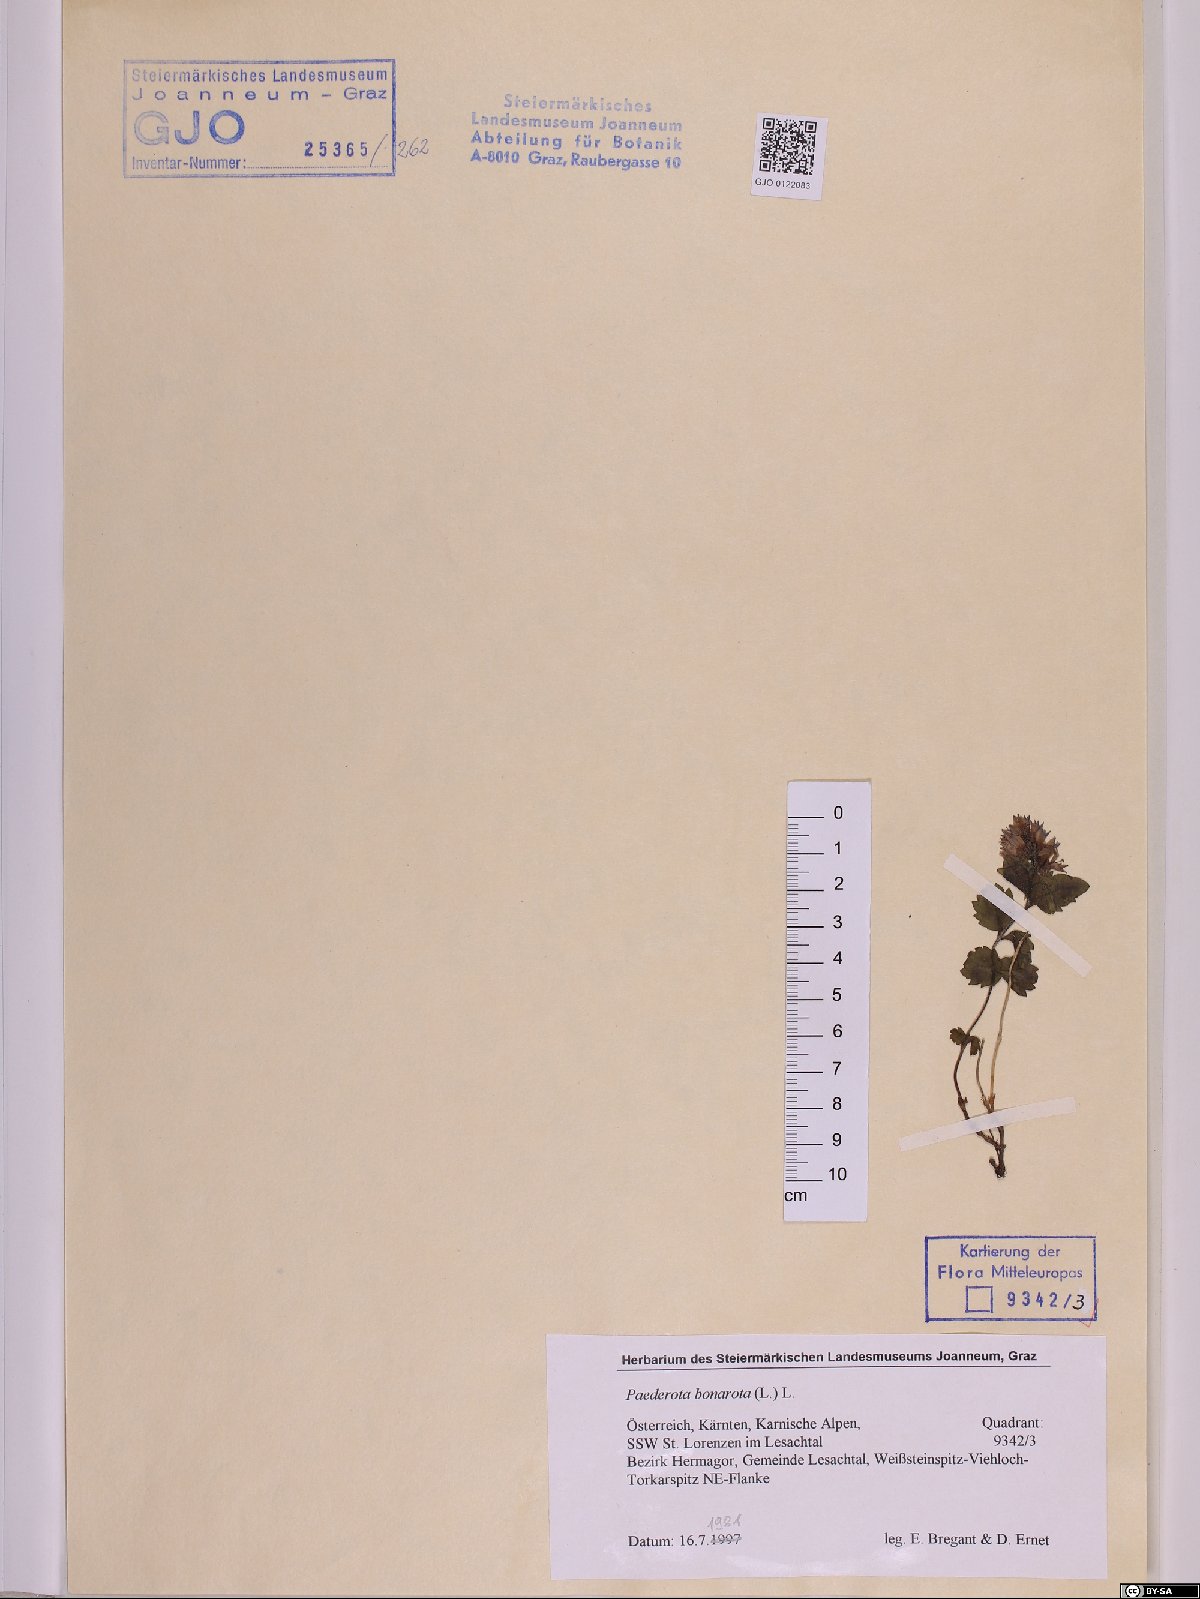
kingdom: Plantae
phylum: Tracheophyta
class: Magnoliopsida
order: Lamiales
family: Plantaginaceae
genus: Paederota
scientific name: Paederota bonarota
